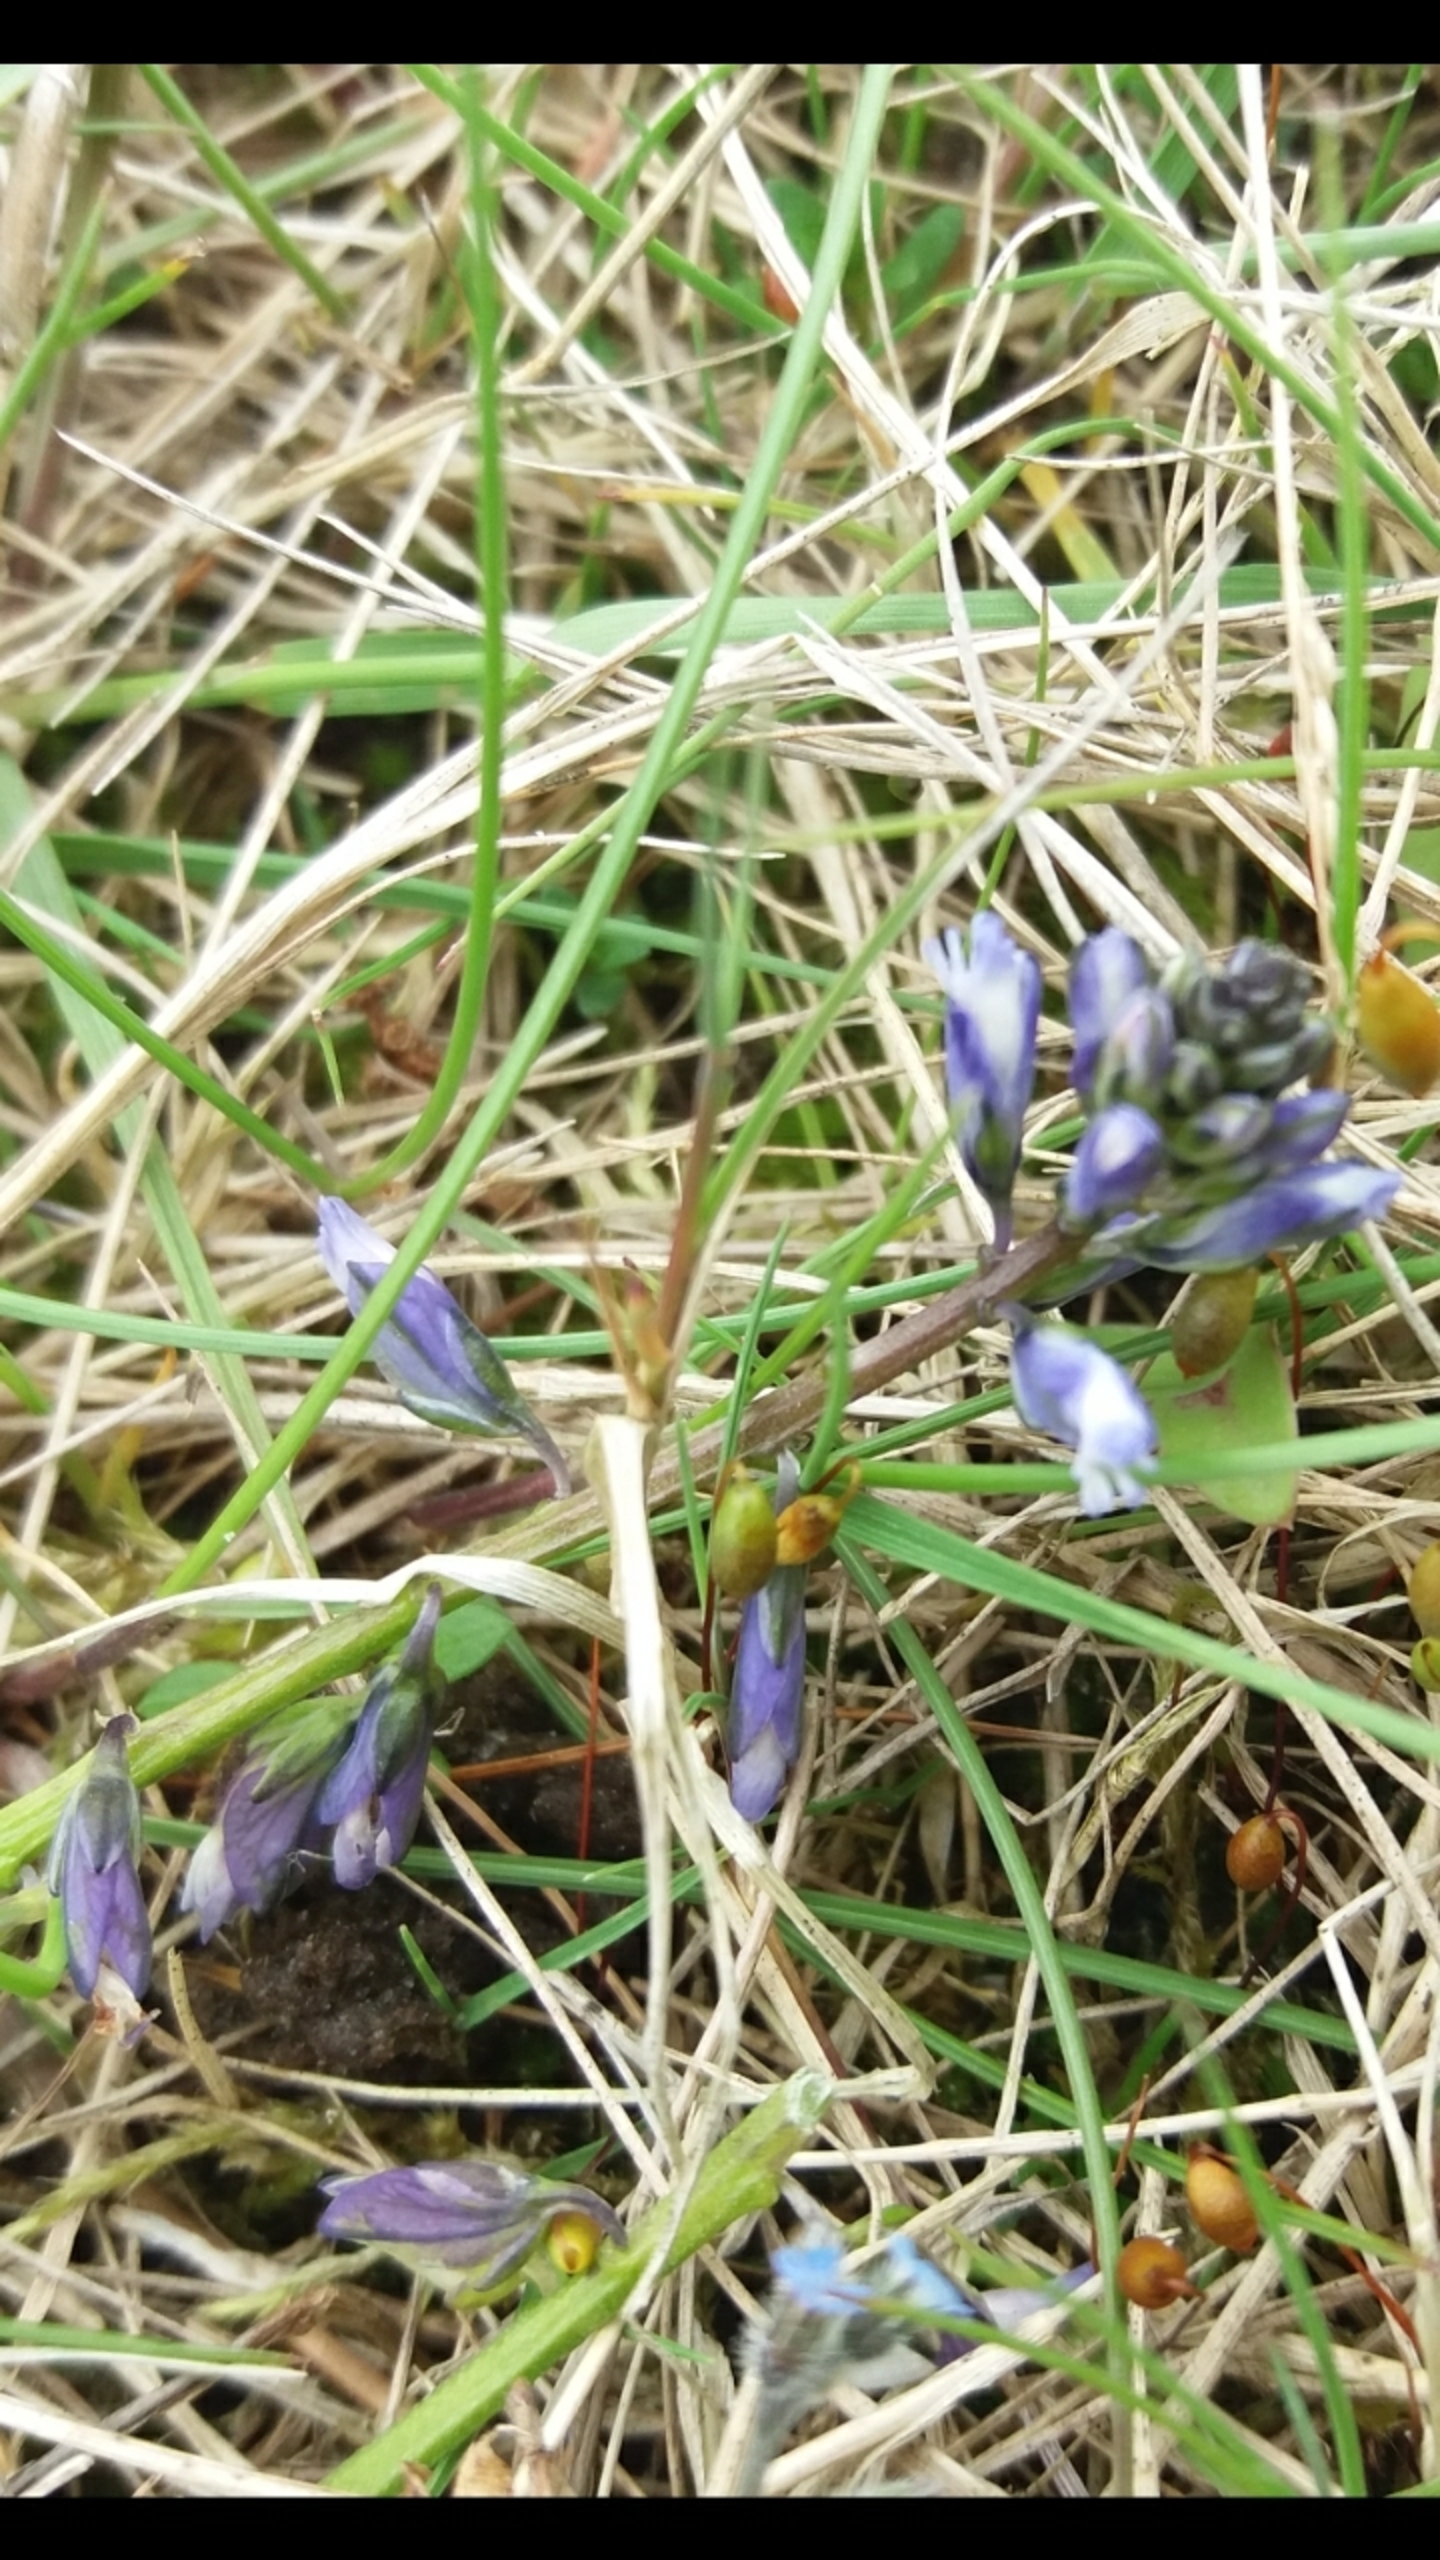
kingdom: Plantae
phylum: Tracheophyta
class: Magnoliopsida
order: Fabales
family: Polygalaceae
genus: Polygala
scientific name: Polygala vulgaris
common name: Almindelig mælkeurt
